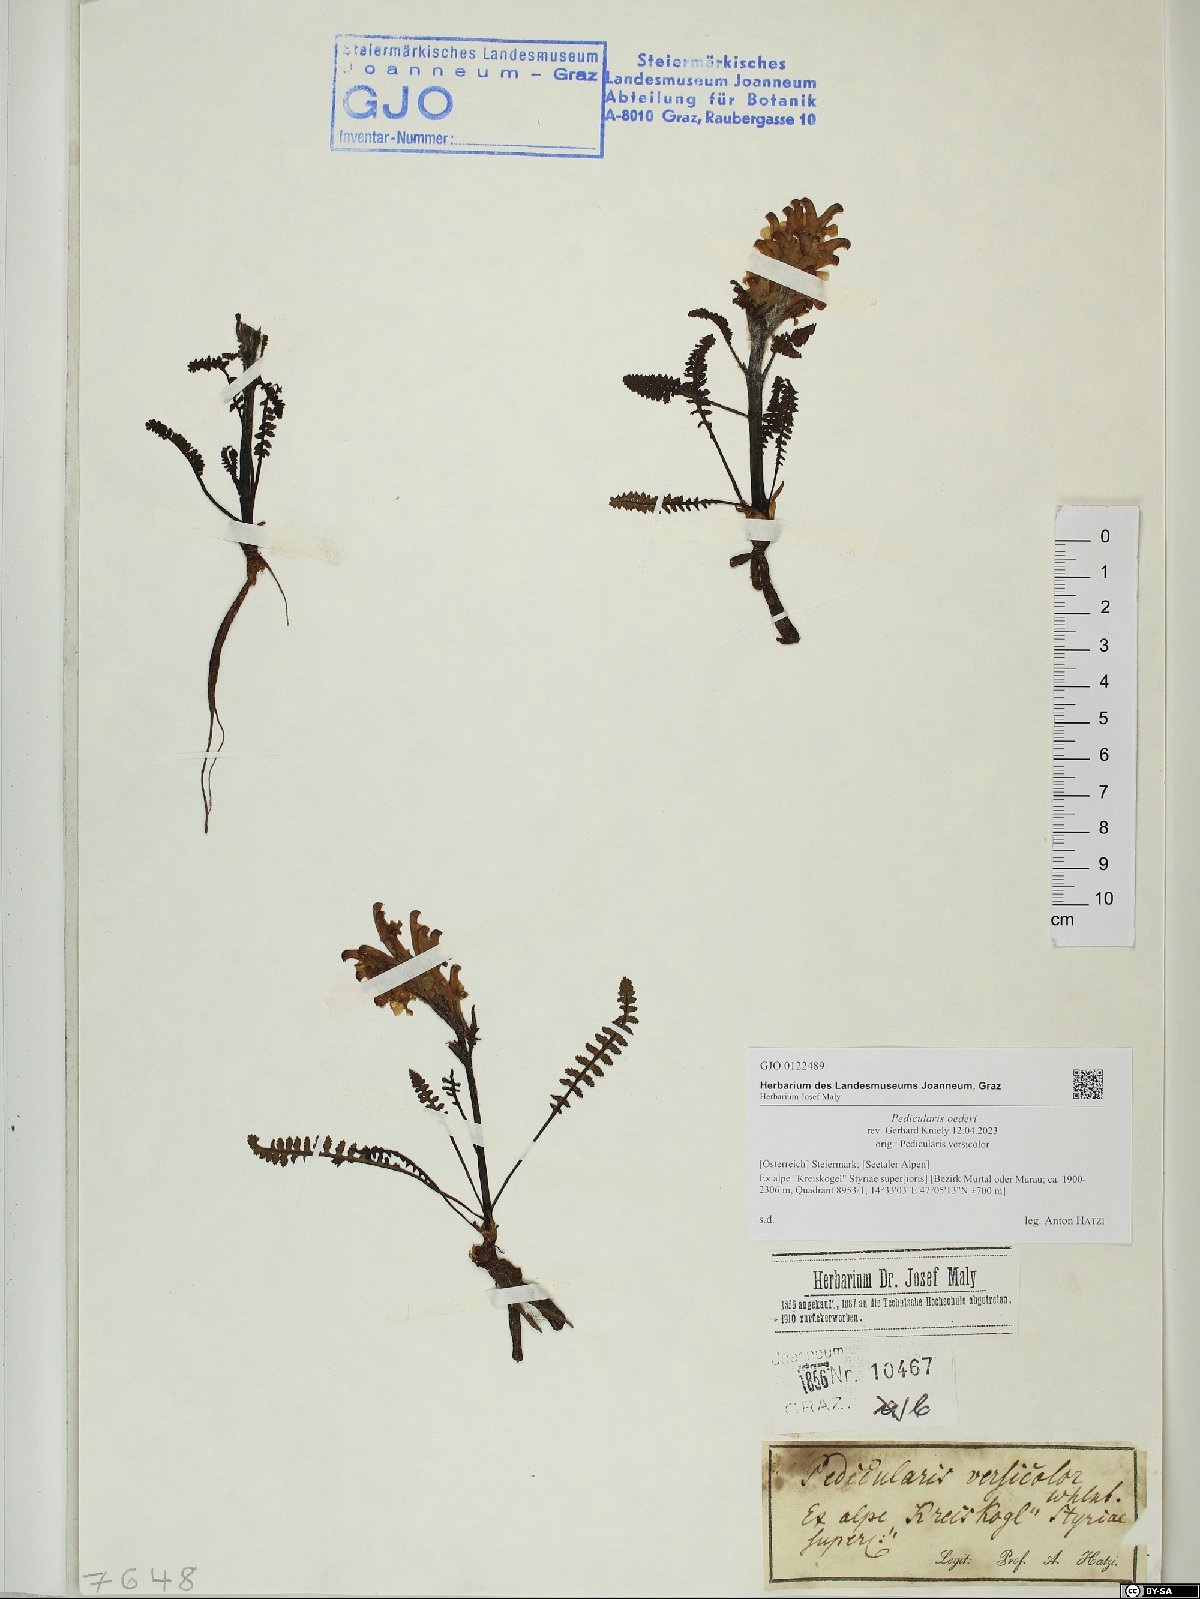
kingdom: Plantae
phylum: Tracheophyta
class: Magnoliopsida
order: Lamiales
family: Orobanchaceae
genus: Pedicularis
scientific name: Pedicularis oederi
